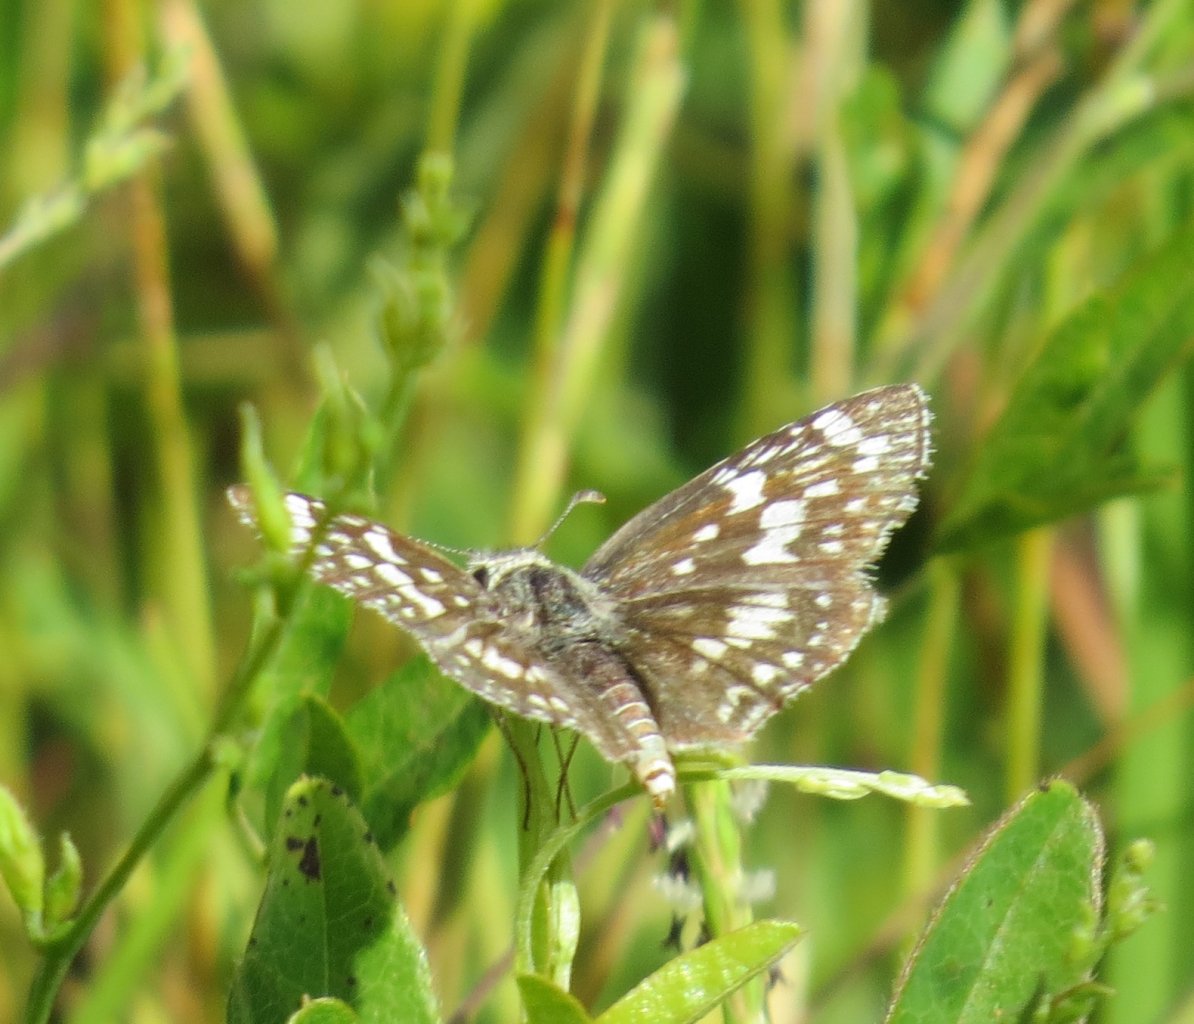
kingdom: Animalia
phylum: Arthropoda
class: Insecta
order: Lepidoptera
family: Hesperiidae
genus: Pyrgus
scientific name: Pyrgus communis
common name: White Checkered-Skipper
